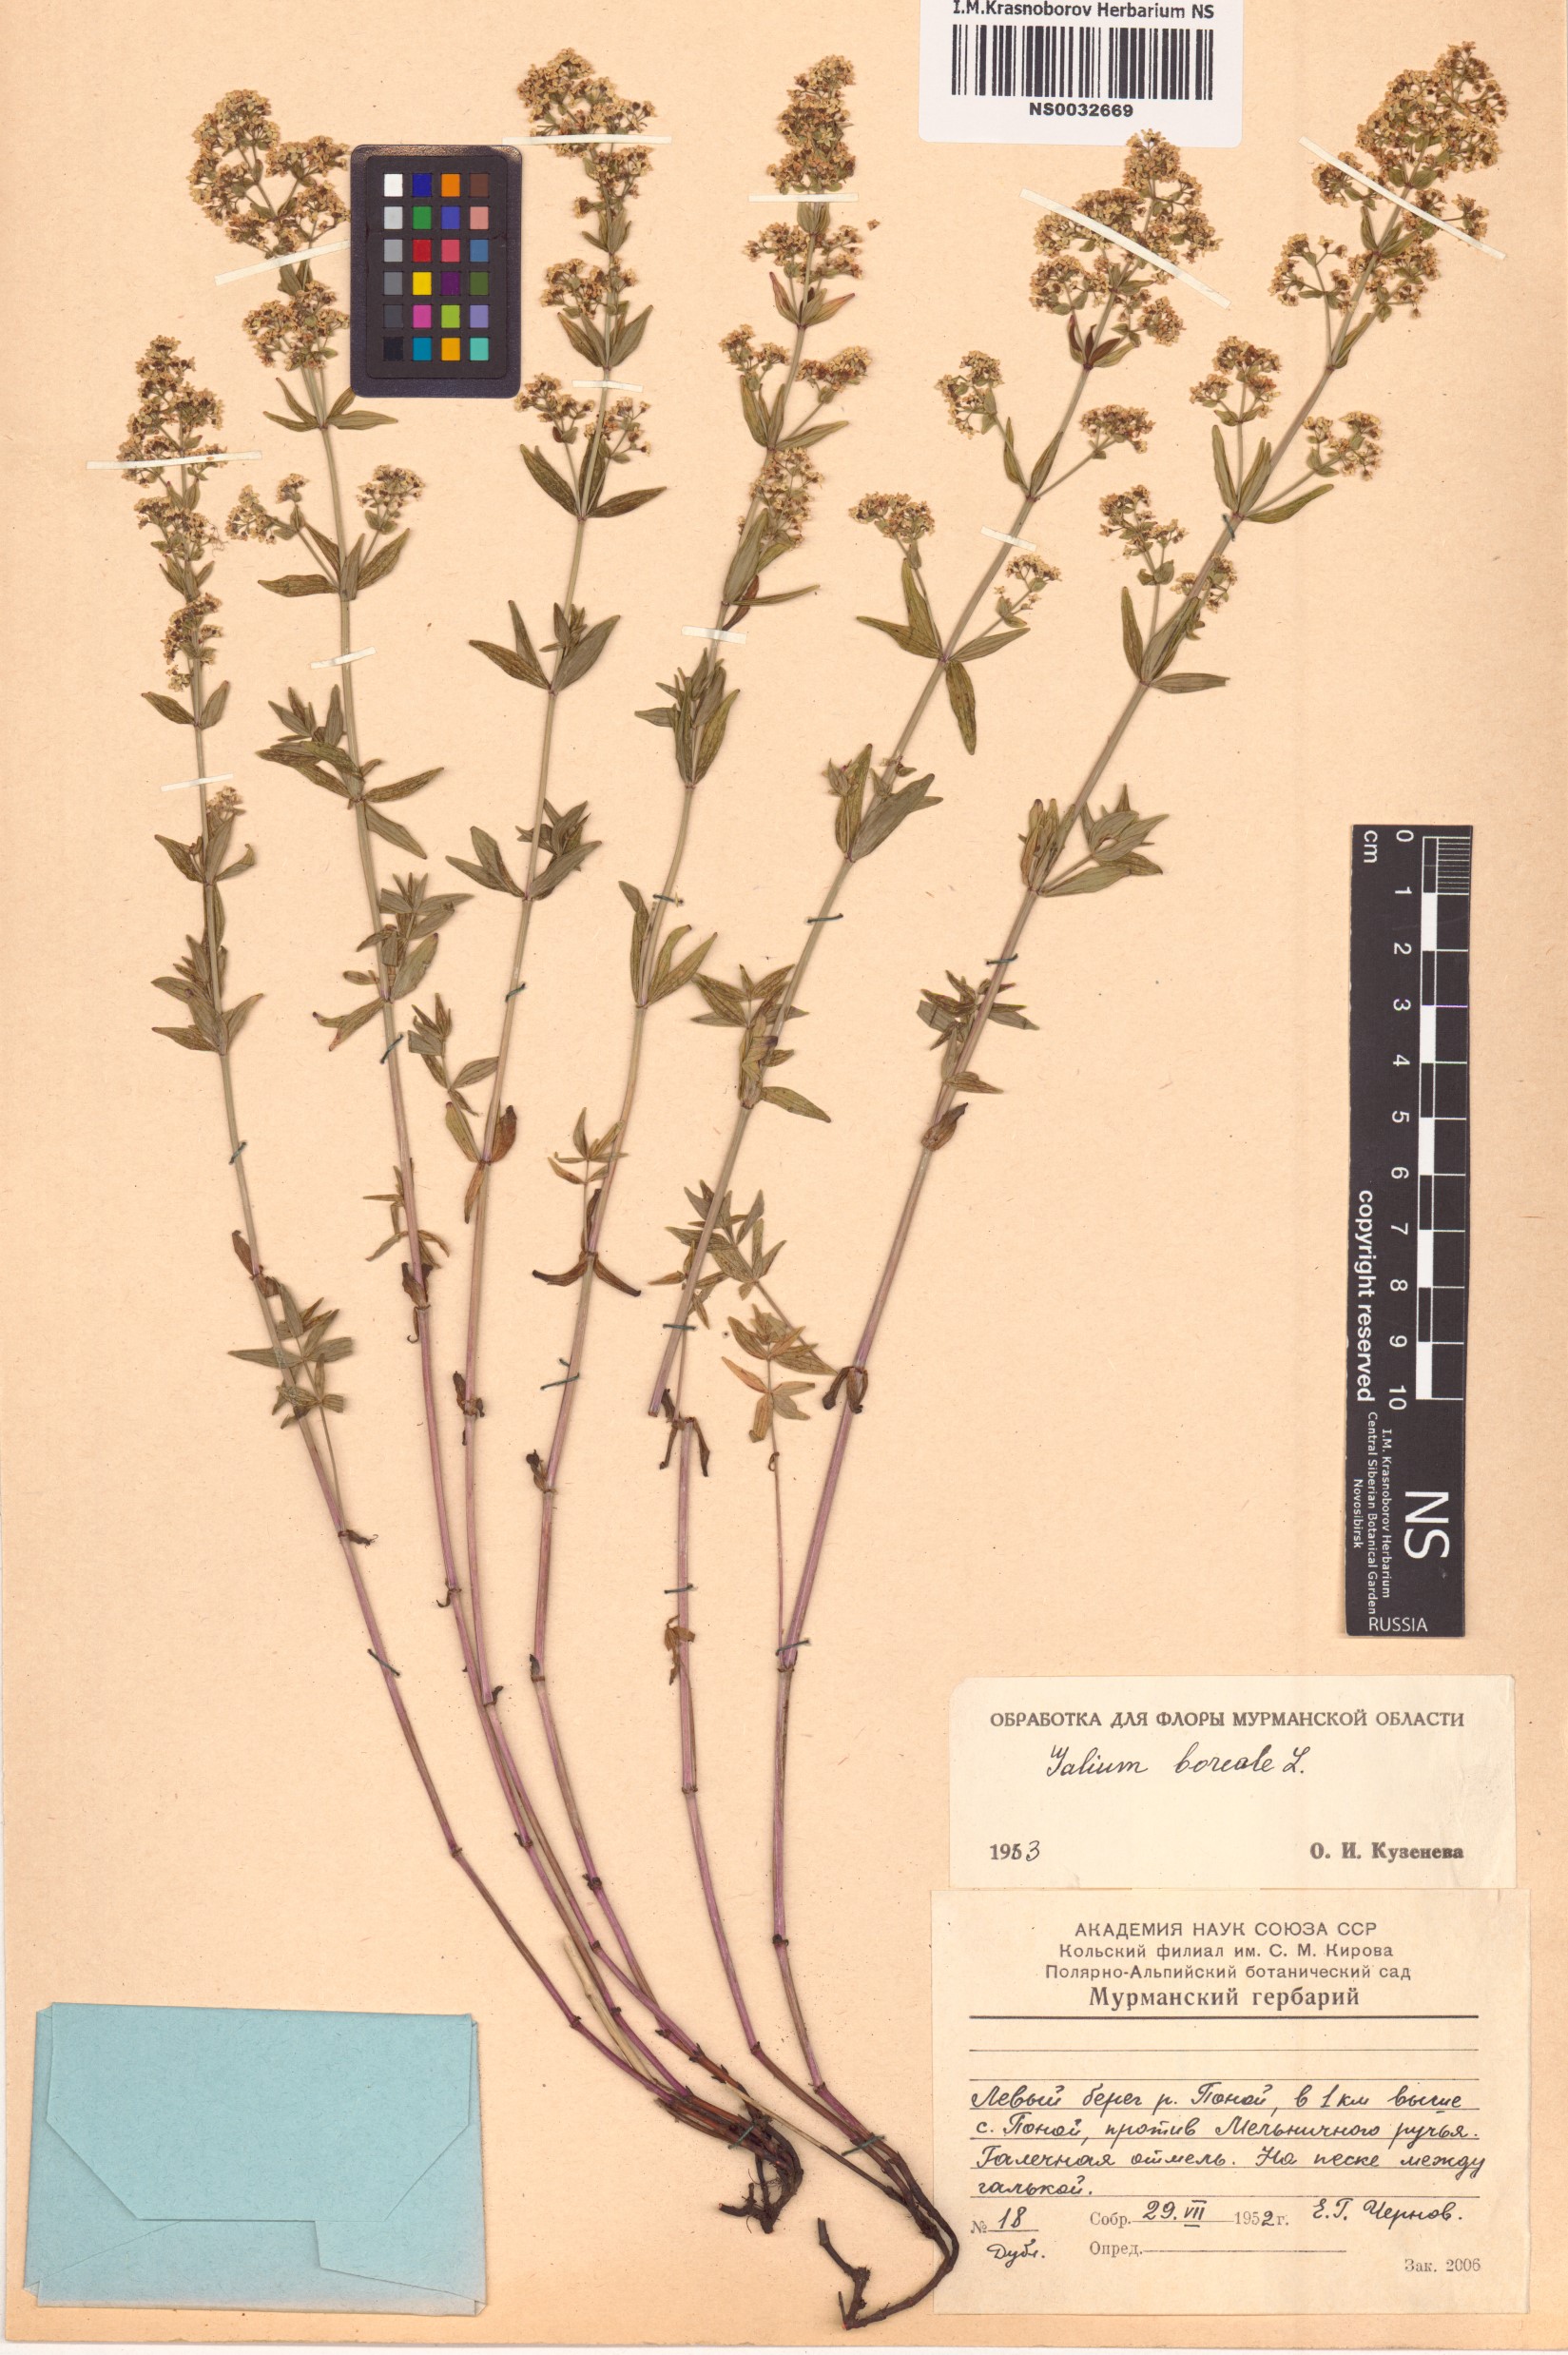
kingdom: Plantae
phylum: Tracheophyta
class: Magnoliopsida
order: Gentianales
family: Rubiaceae
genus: Galium
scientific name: Galium boreale
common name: Northern bedstraw
